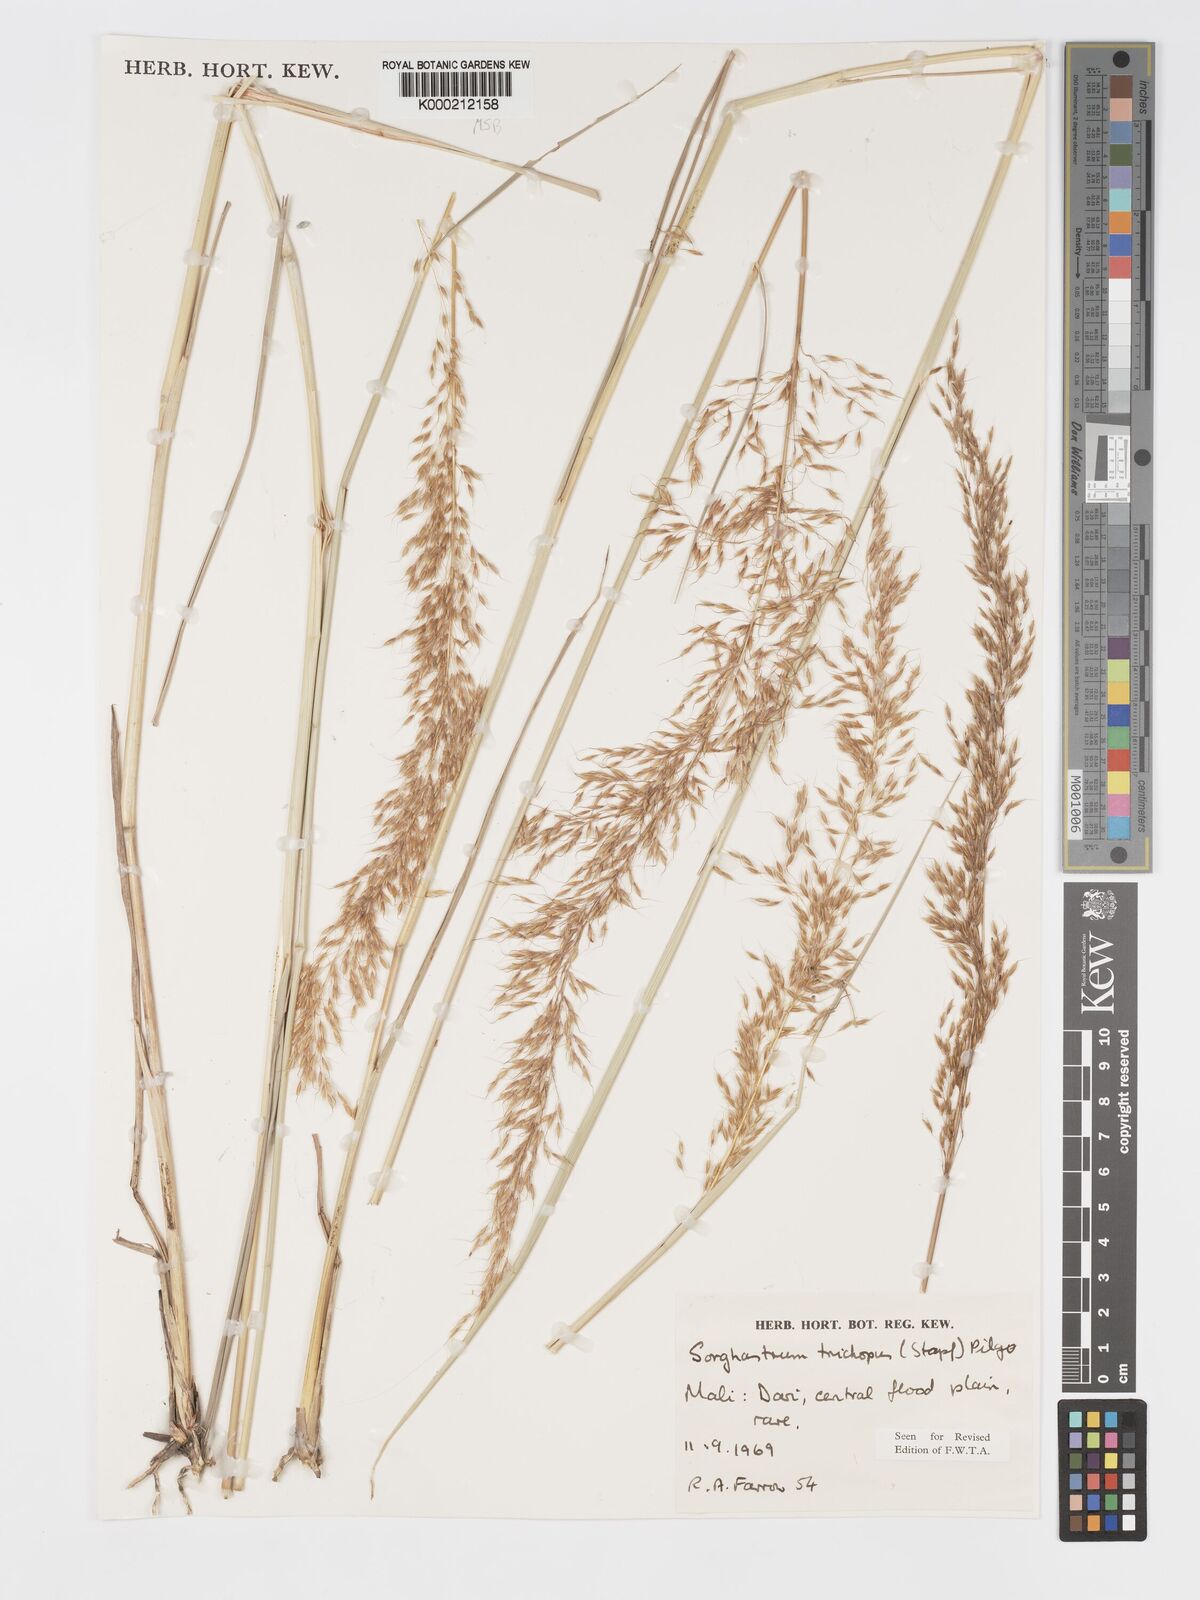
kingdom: Plantae
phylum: Tracheophyta
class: Liliopsida
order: Poales
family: Poaceae
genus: Sorghastrum
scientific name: Sorghastrum stipoides
